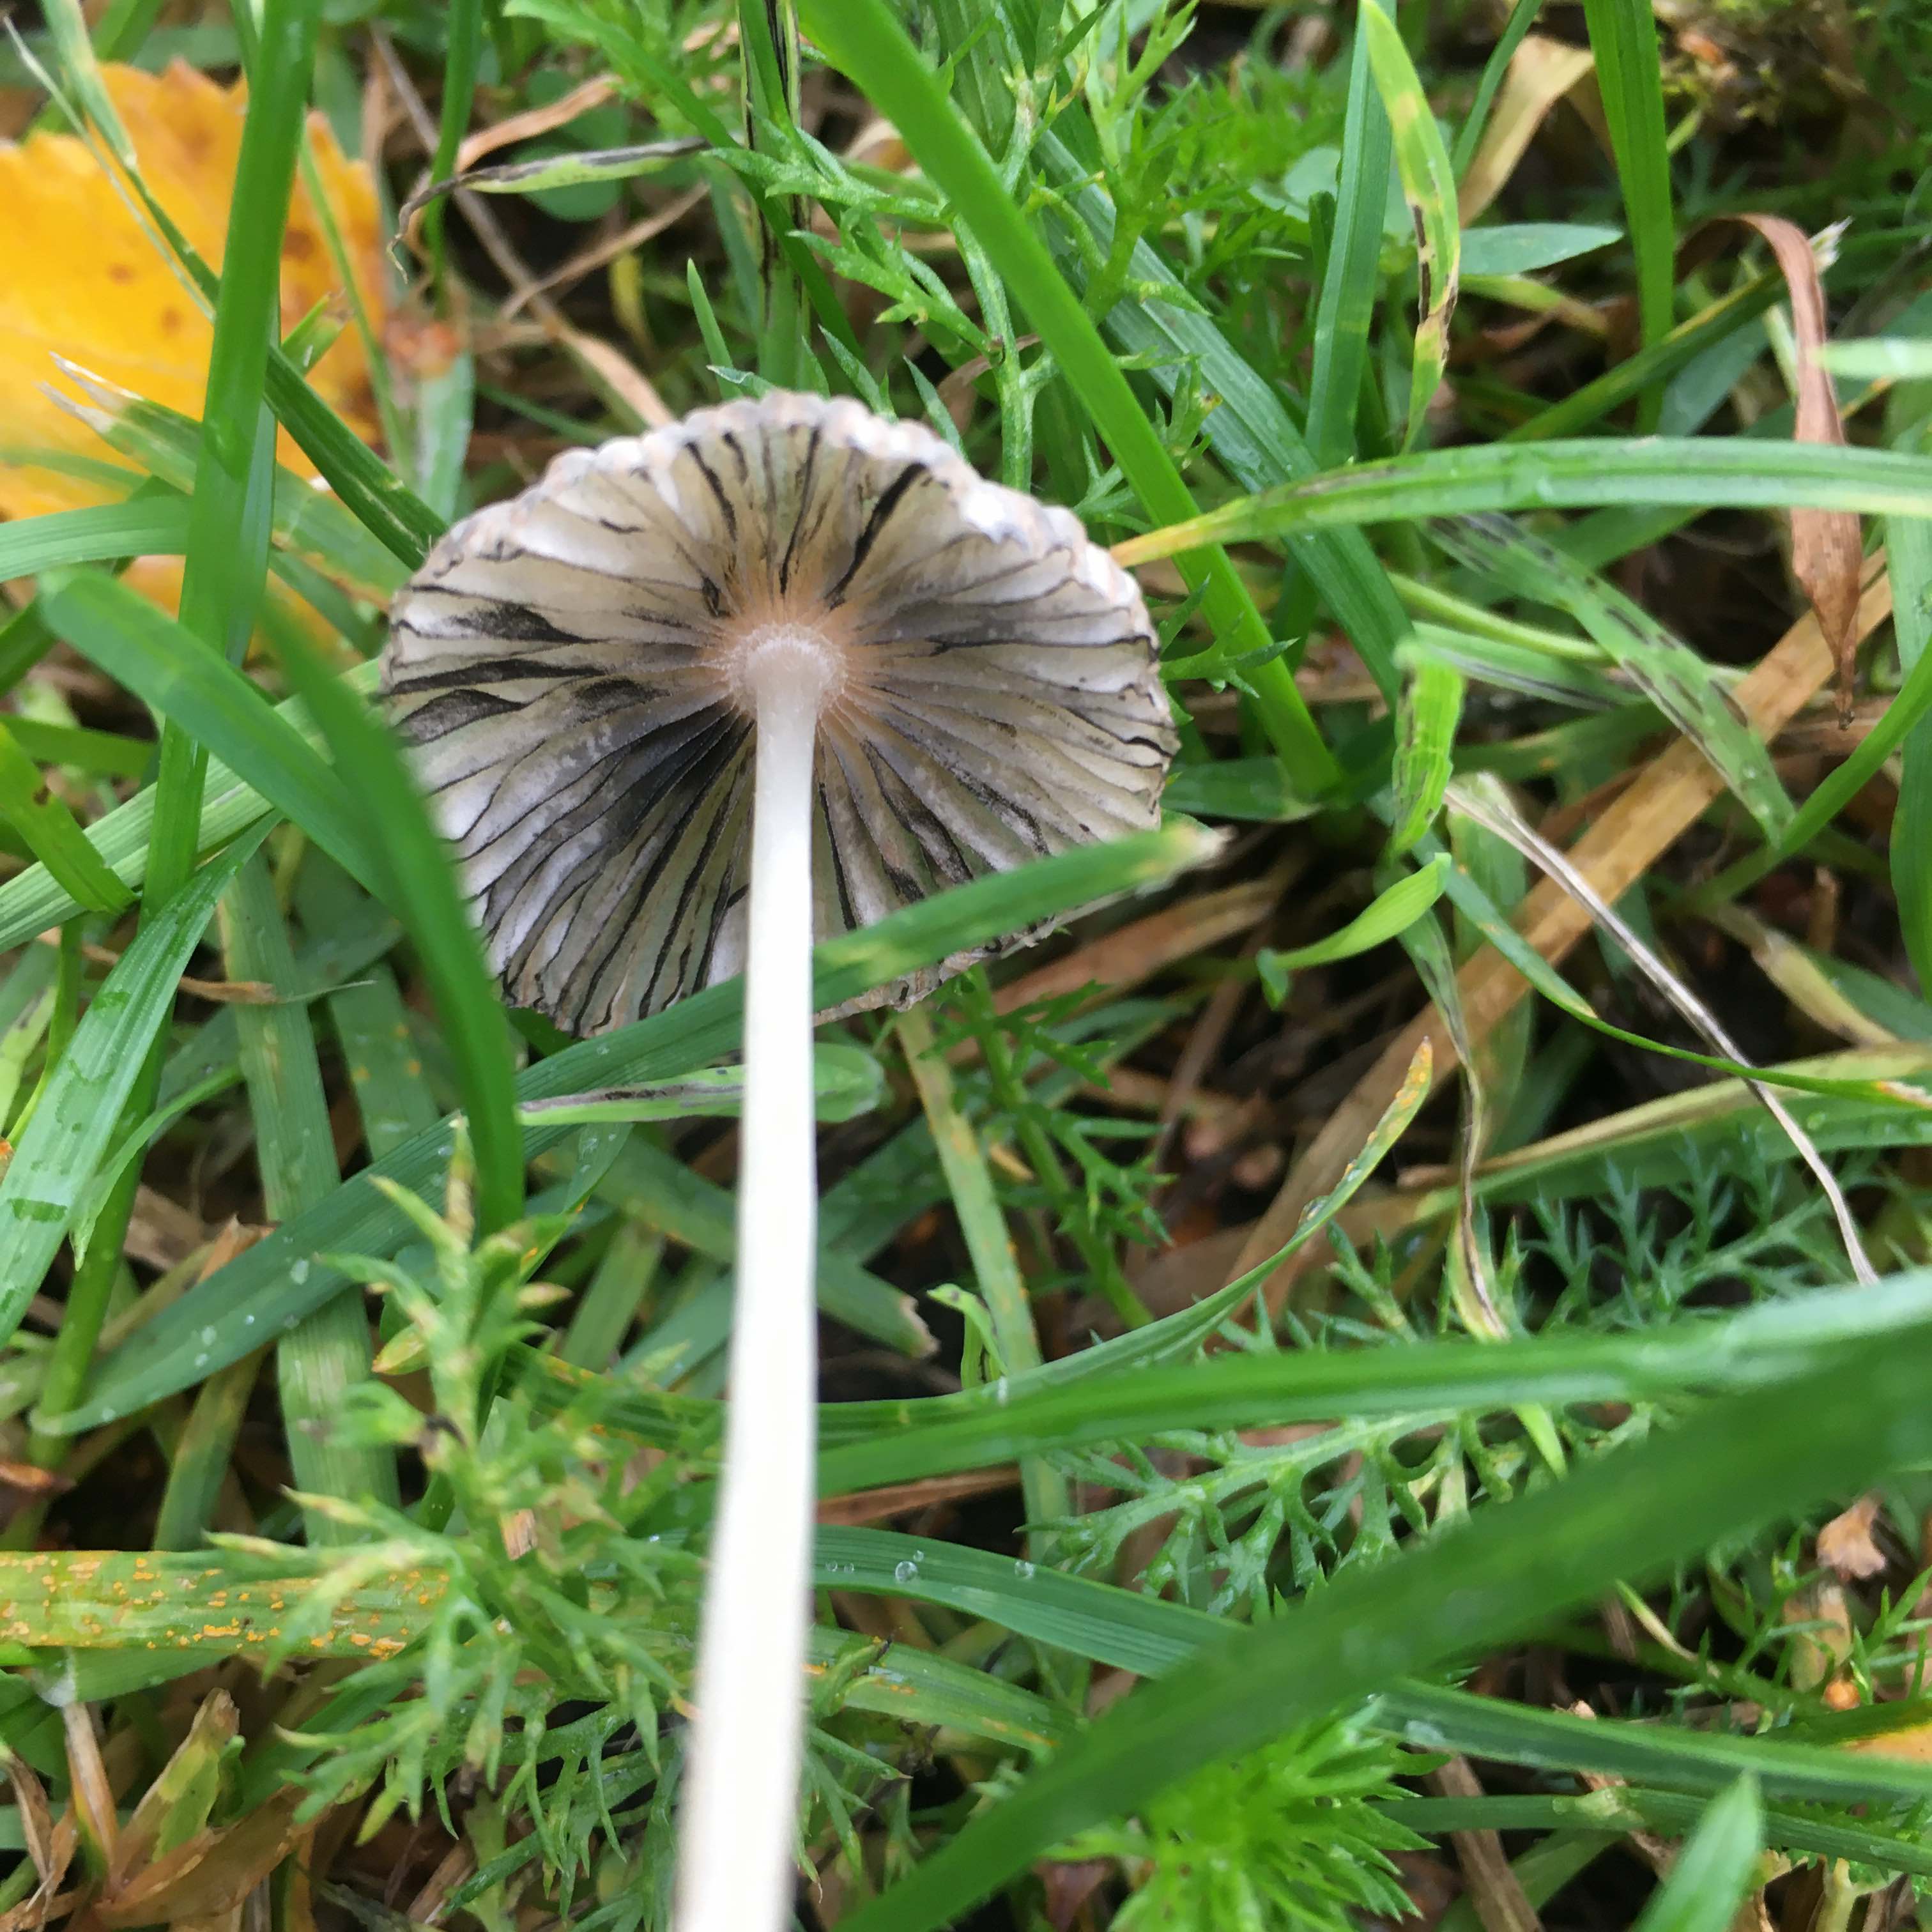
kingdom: Fungi
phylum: Basidiomycota
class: Agaricomycetes
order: Agaricales
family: Psathyrellaceae
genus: Parasola
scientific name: Parasola
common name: hjulhat
